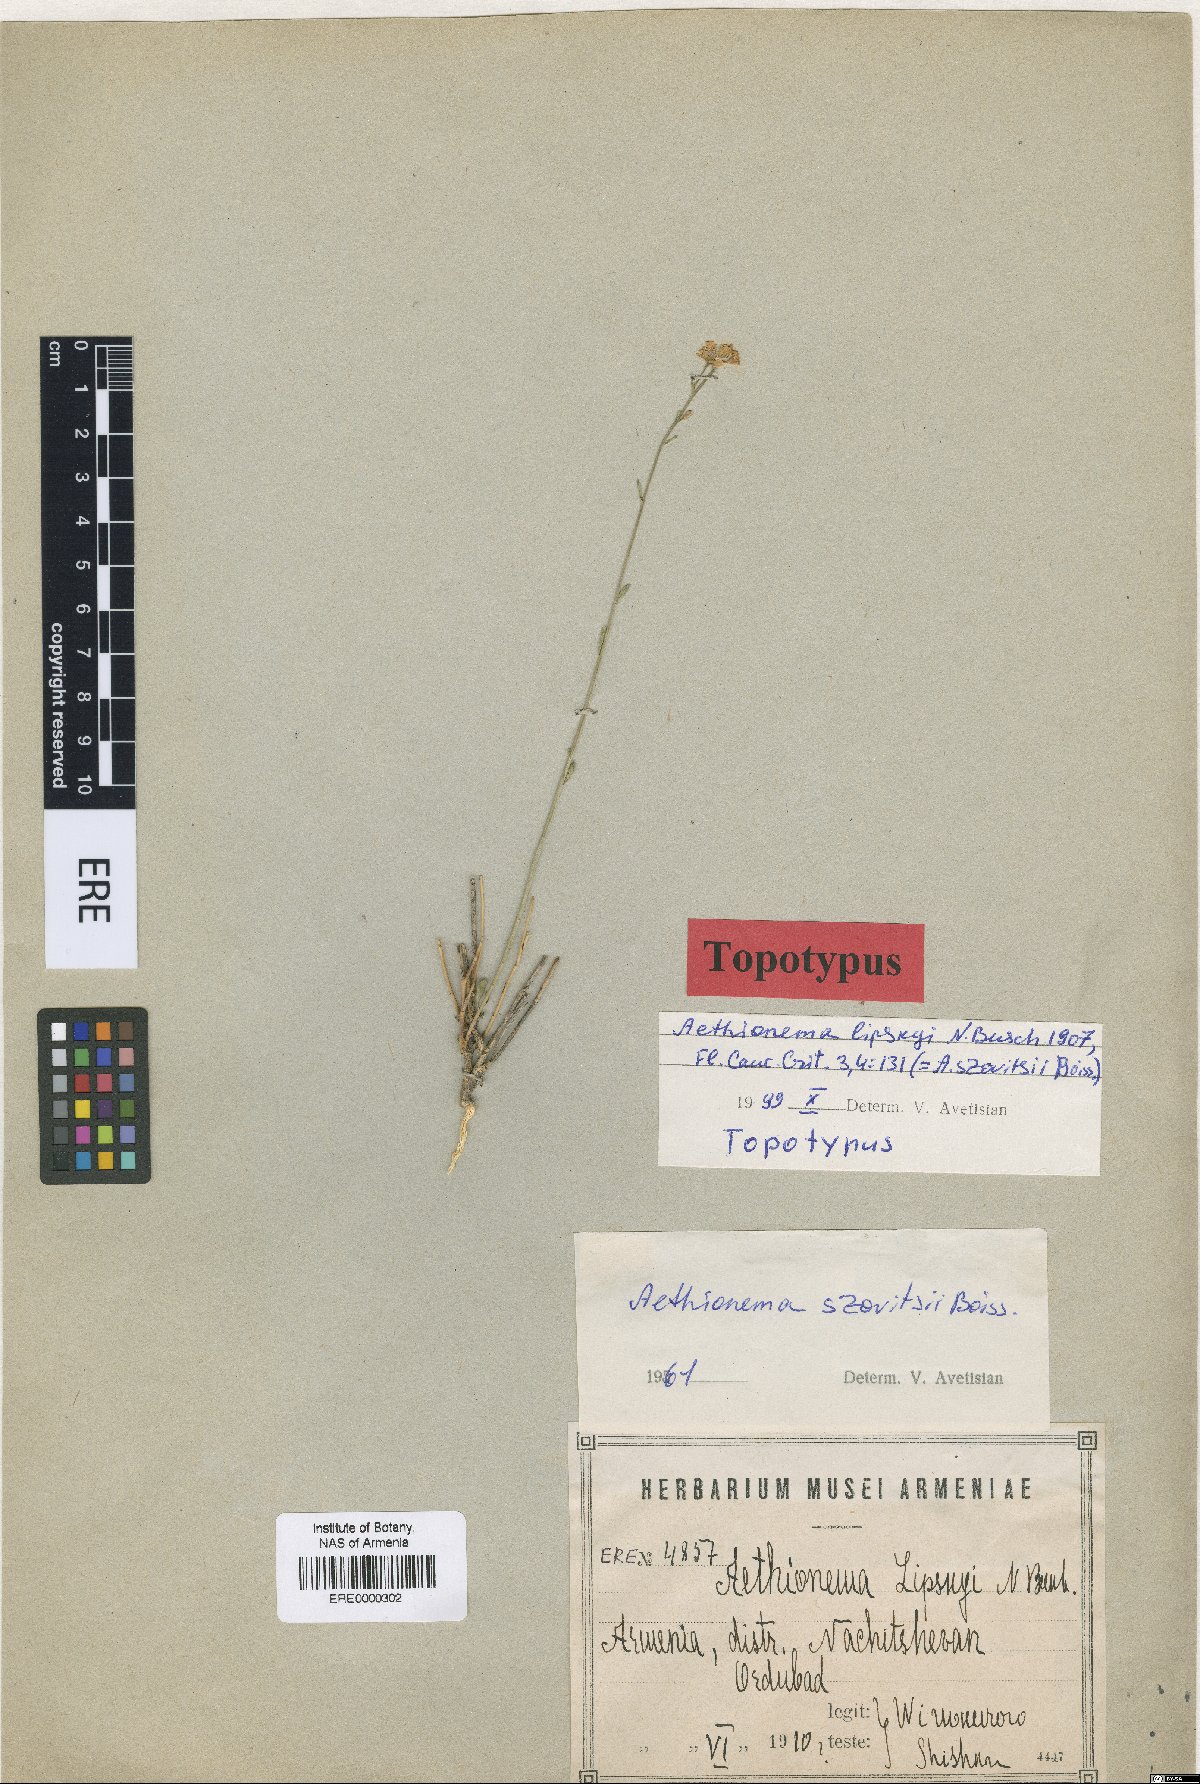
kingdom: Plantae
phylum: Tracheophyta
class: Magnoliopsida
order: Brassicales
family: Brassicaceae
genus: Aethionema
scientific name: Aethionema virgatum
